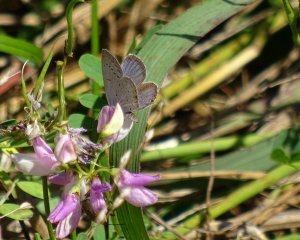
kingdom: Animalia
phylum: Arthropoda
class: Insecta
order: Lepidoptera
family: Lycaenidae
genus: Elkalyce
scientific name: Elkalyce comyntas
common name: Eastern Tailed-Blue
